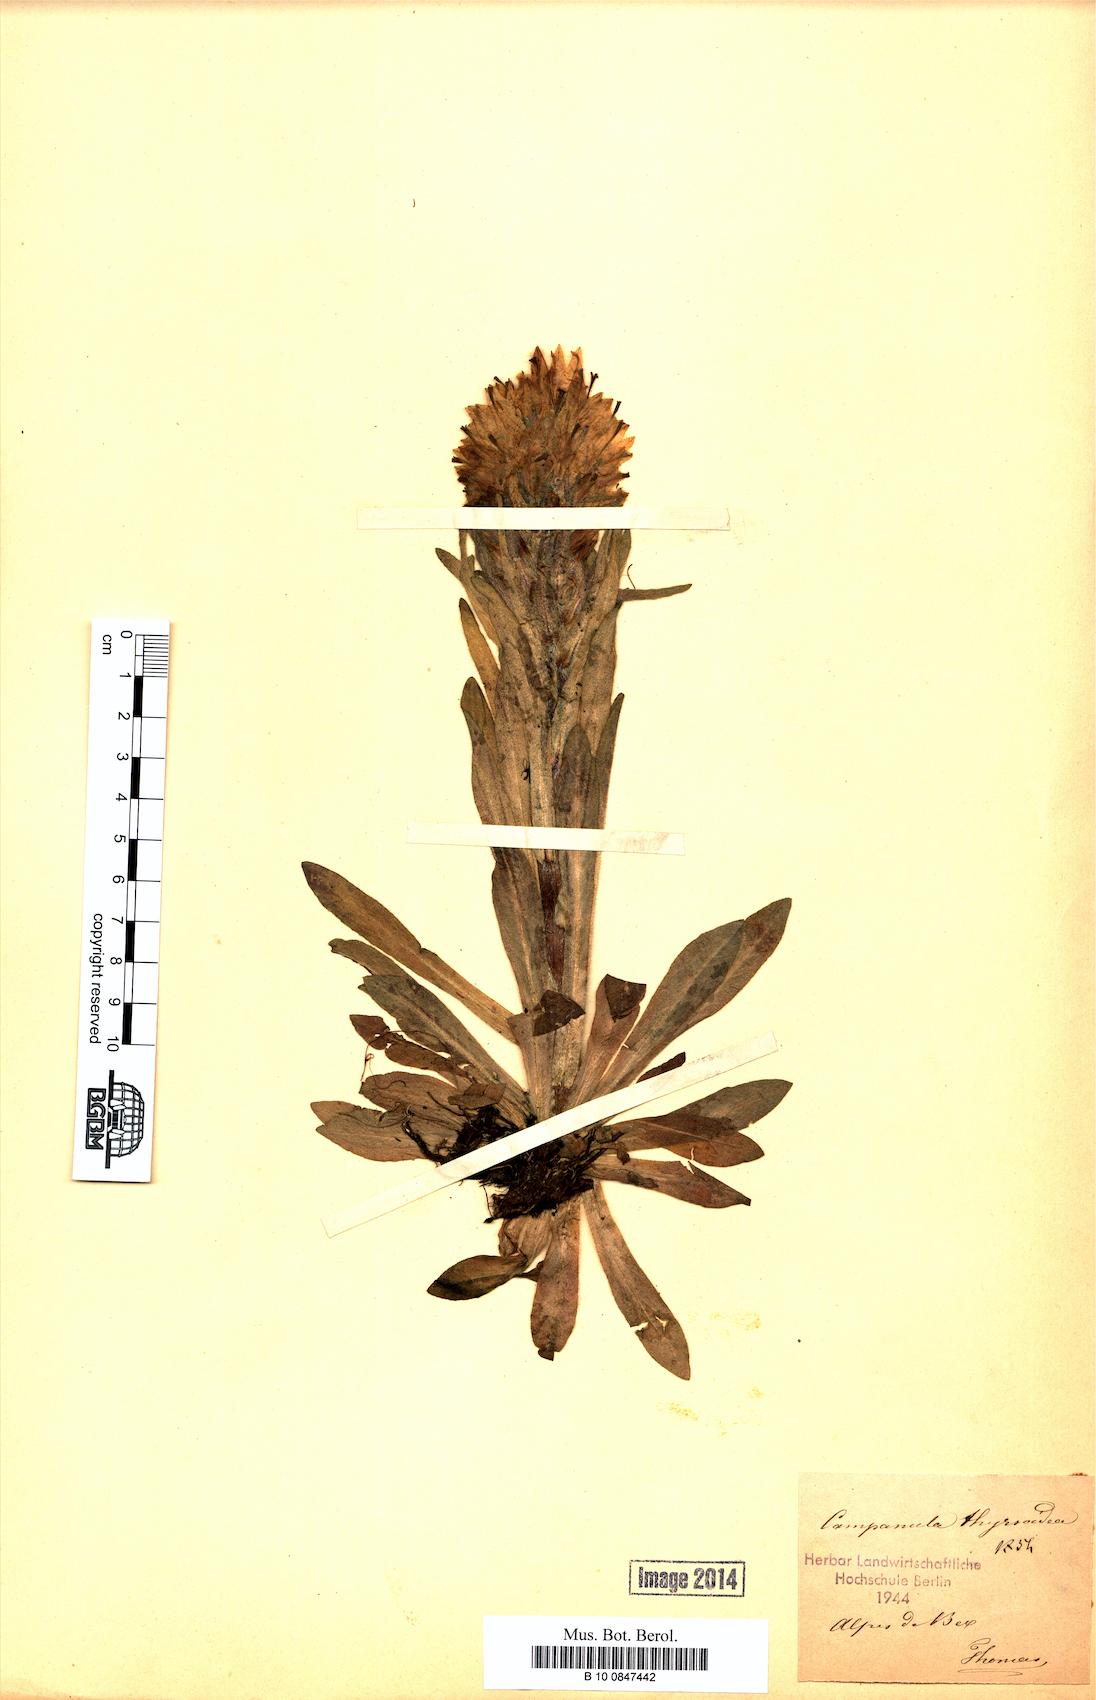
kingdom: Plantae
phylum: Tracheophyta
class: Magnoliopsida
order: Asterales
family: Campanulaceae
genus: Campanula
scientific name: Campanula thyrsoides
